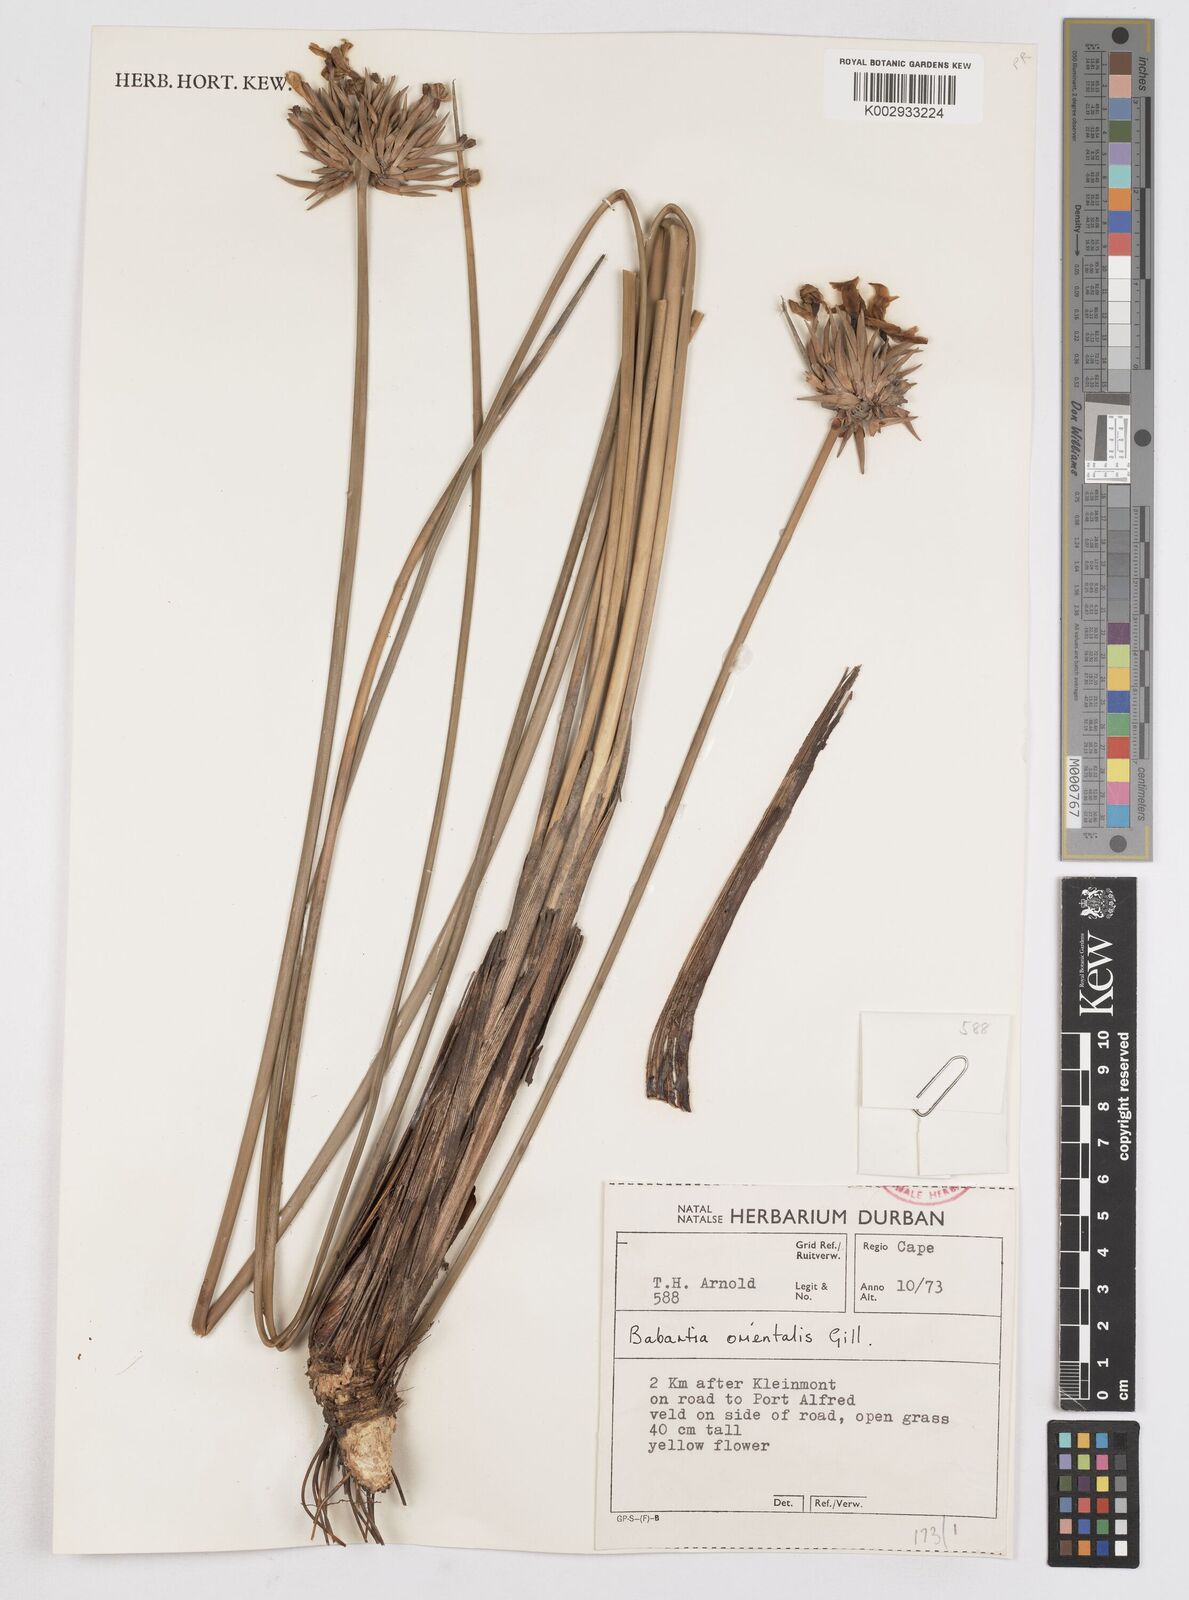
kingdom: Plantae
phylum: Tracheophyta
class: Liliopsida
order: Asparagales
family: Iridaceae
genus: Bobartia
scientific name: Bobartia orientalis
